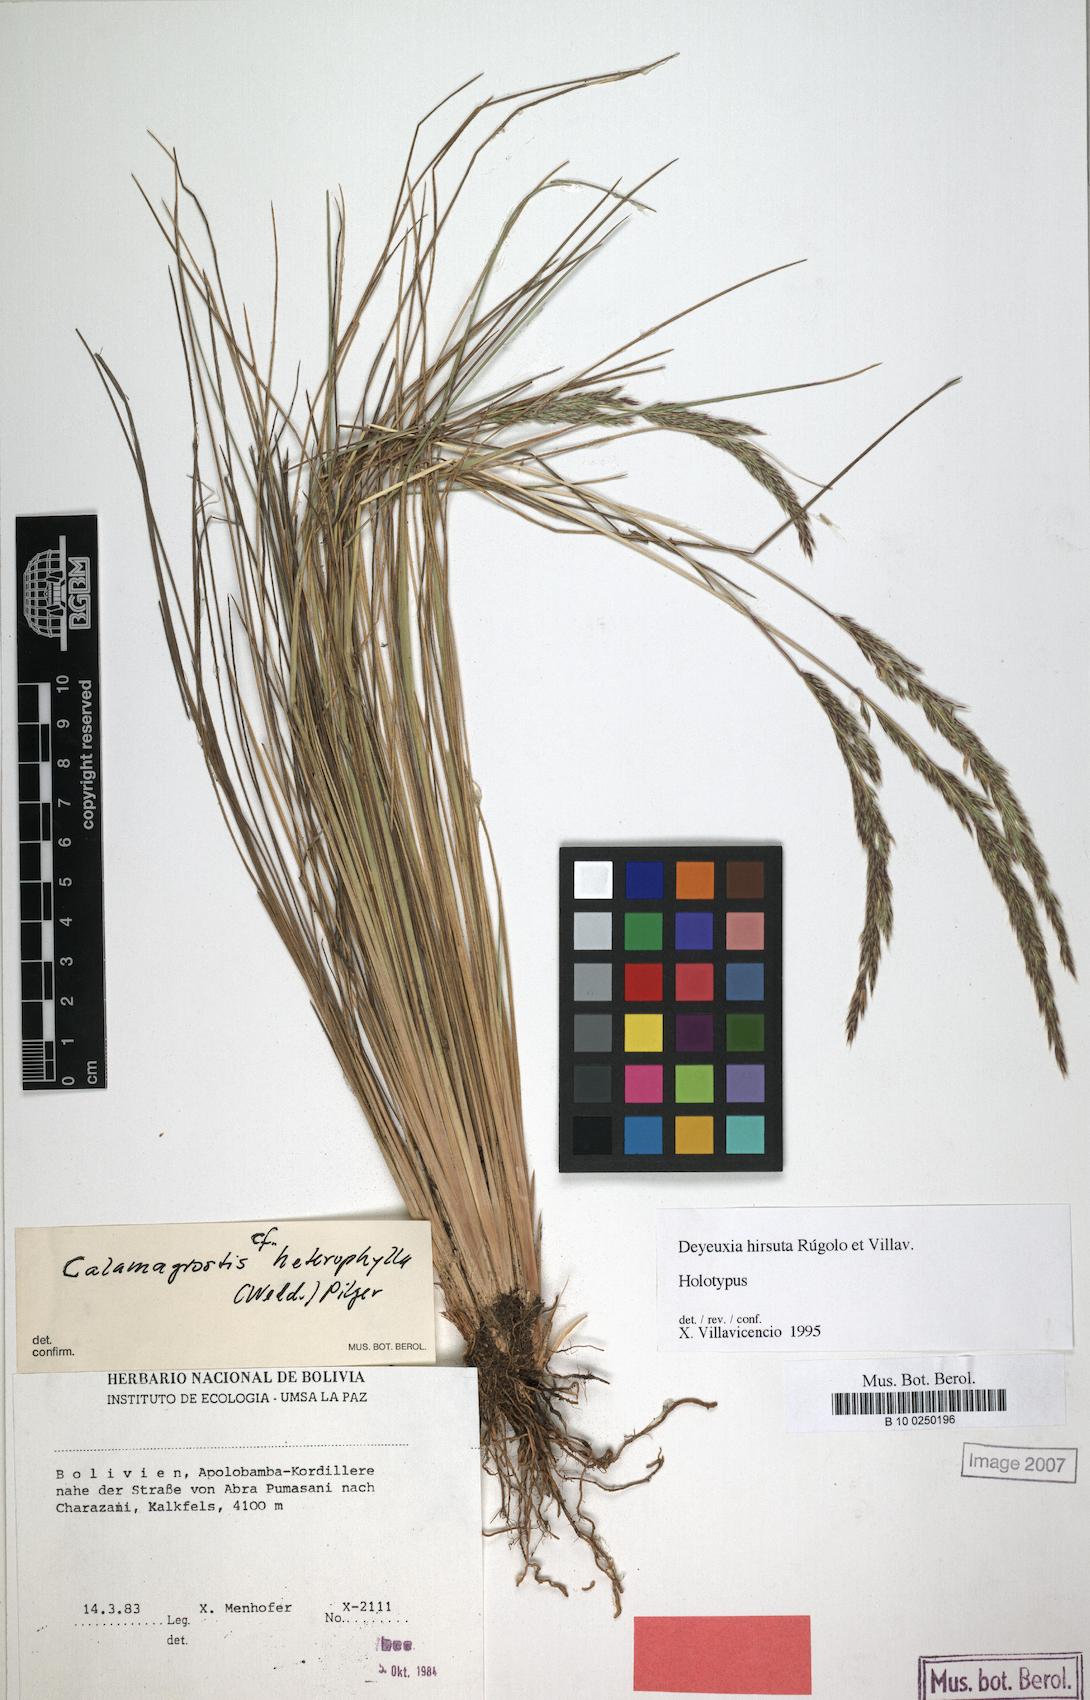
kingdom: Plantae
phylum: Tracheophyta
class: Liliopsida
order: Poales
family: Poaceae
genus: Cinnagrostis
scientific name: Cinnagrostis hirsuta
